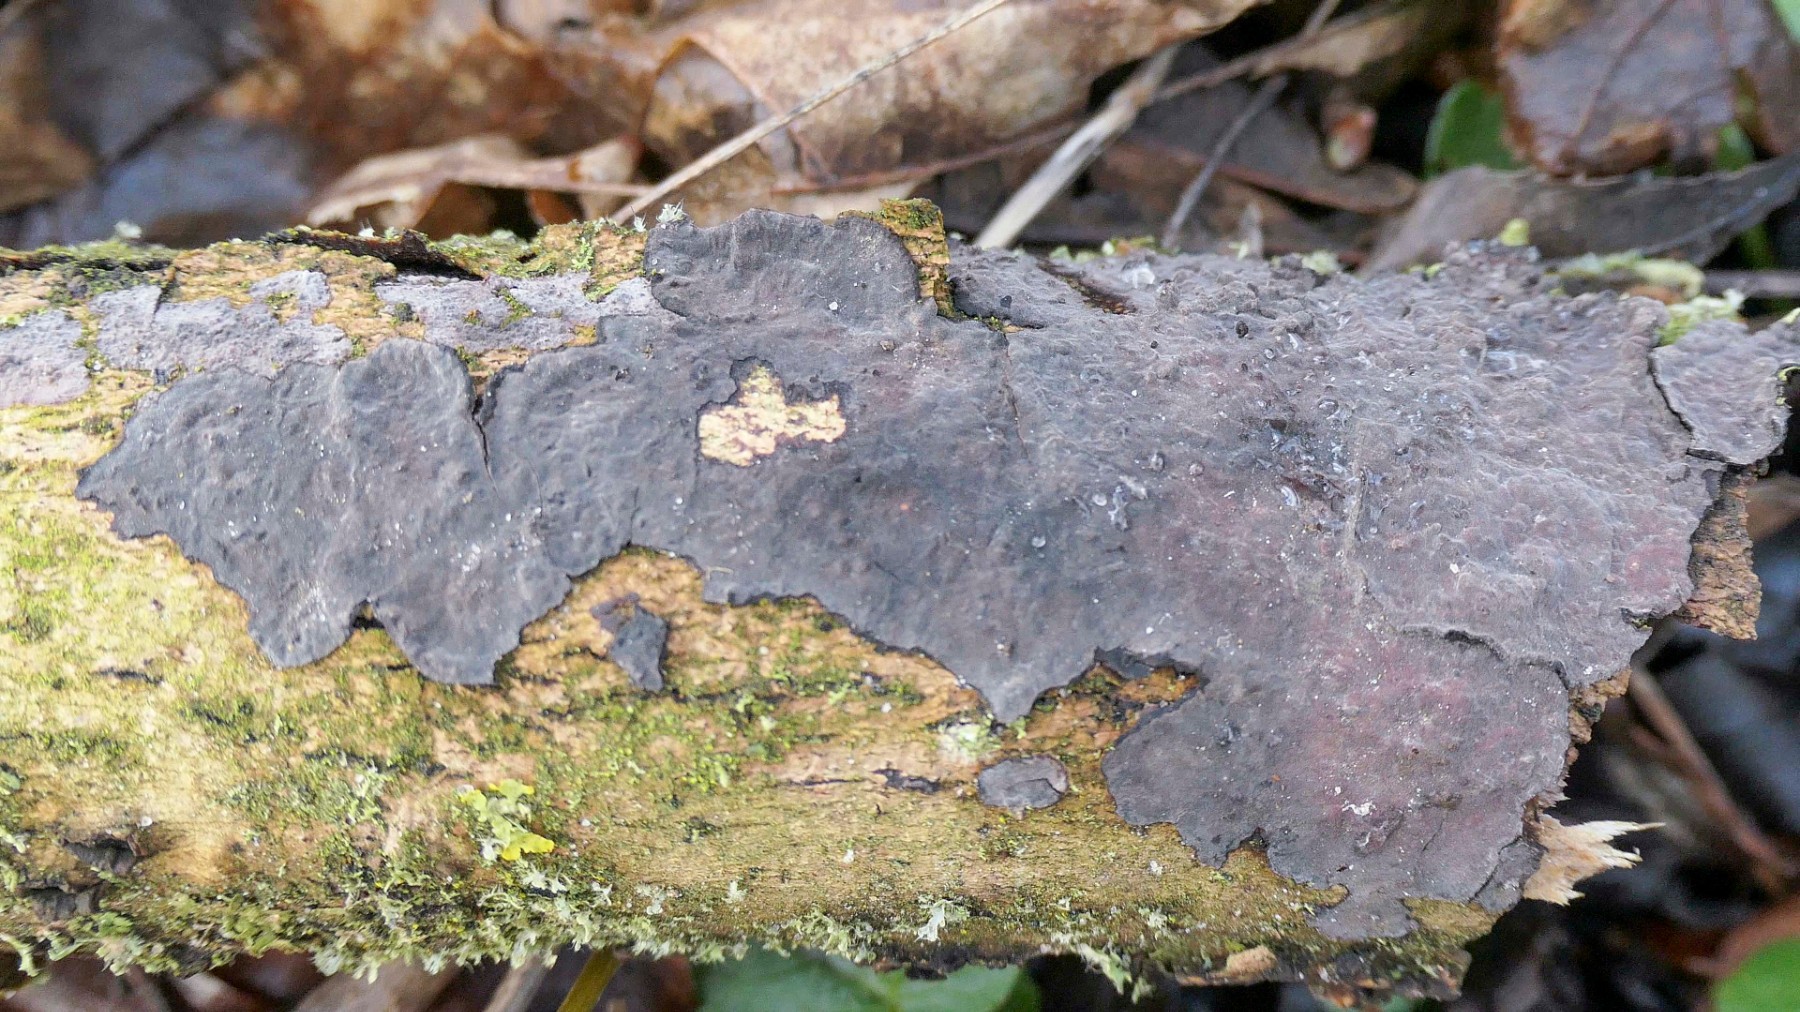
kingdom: Fungi
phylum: Basidiomycota
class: Agaricomycetes
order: Russulales
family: Peniophoraceae
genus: Peniophora
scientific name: Peniophora limitata
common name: mørkrandet voksskind
